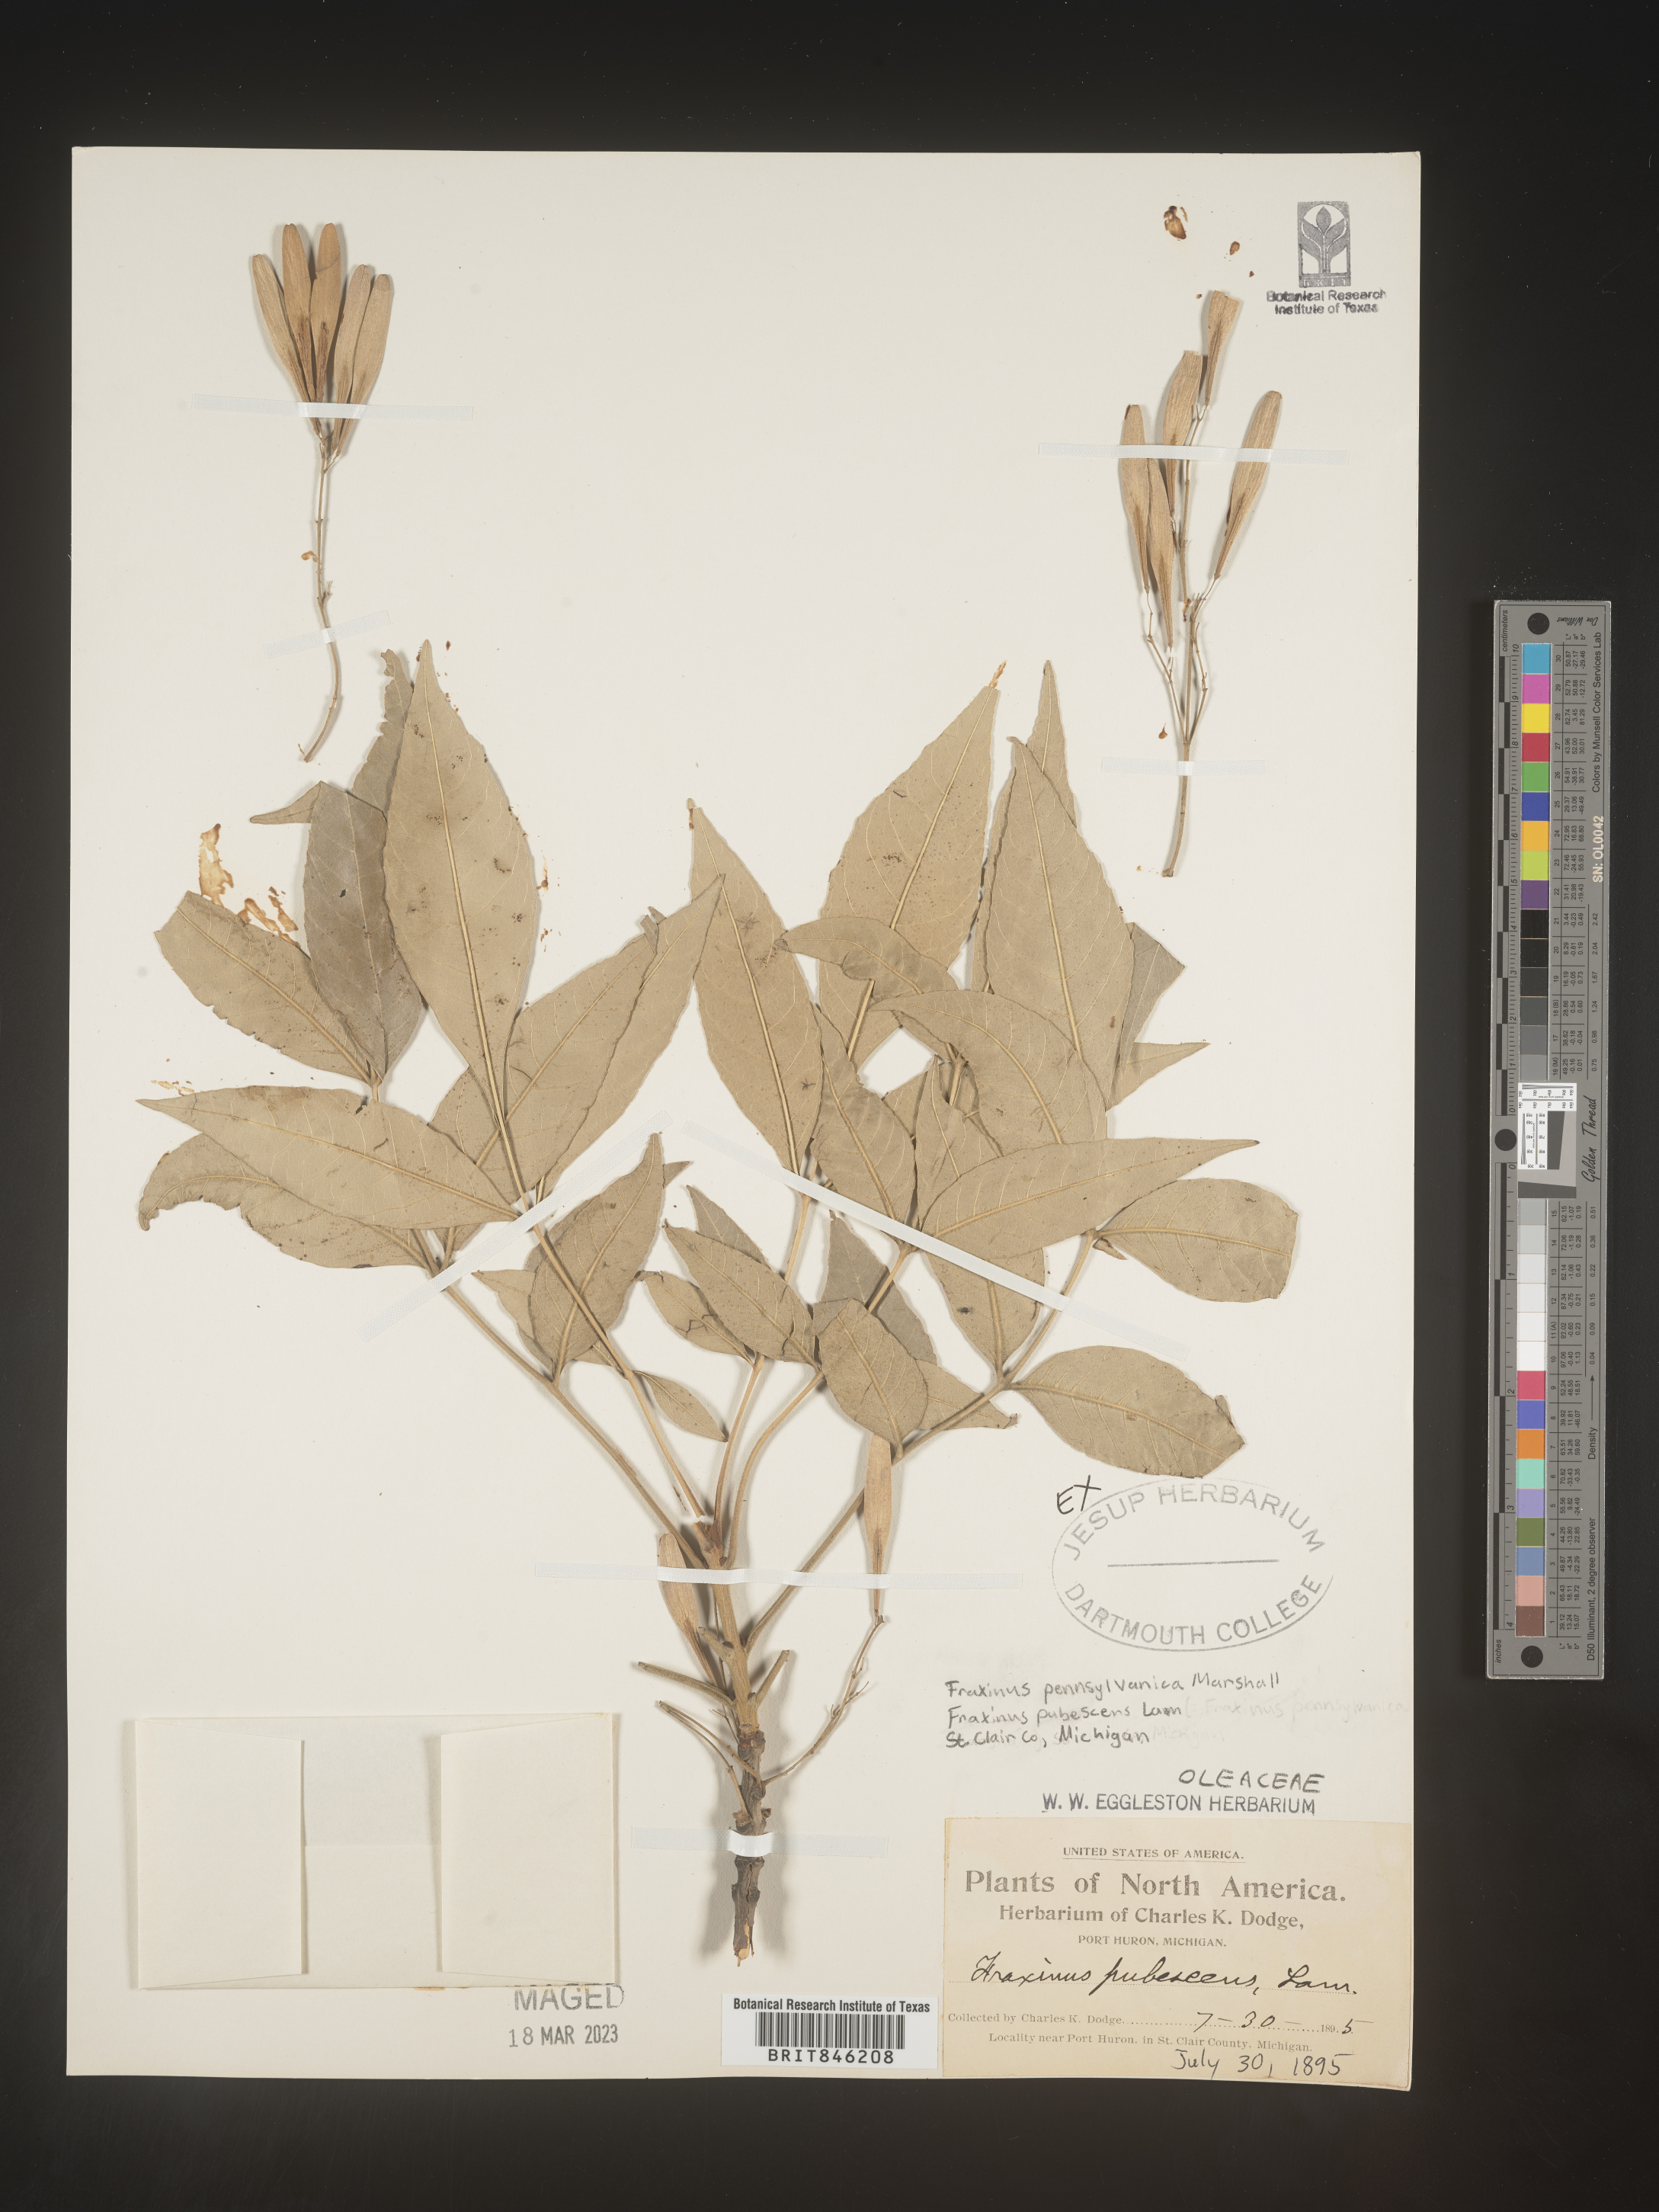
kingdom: Plantae
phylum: Tracheophyta
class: Magnoliopsida
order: Lamiales
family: Oleaceae
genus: Fraxinus
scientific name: Fraxinus pennsylvanica
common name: Green ash
